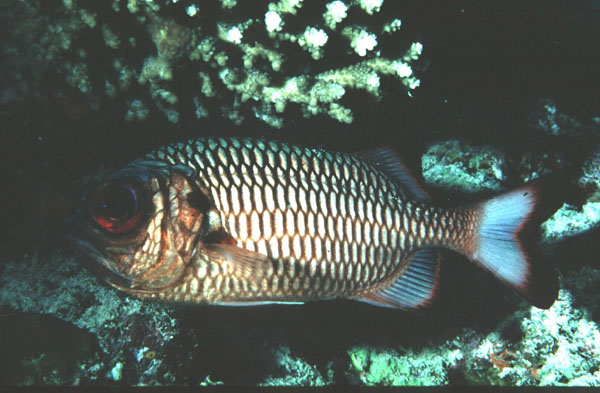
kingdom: Animalia
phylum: Chordata
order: Beryciformes
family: Holocentridae
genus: Myripristis
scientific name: Myripristis adusta
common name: Blackfin soldierfish
